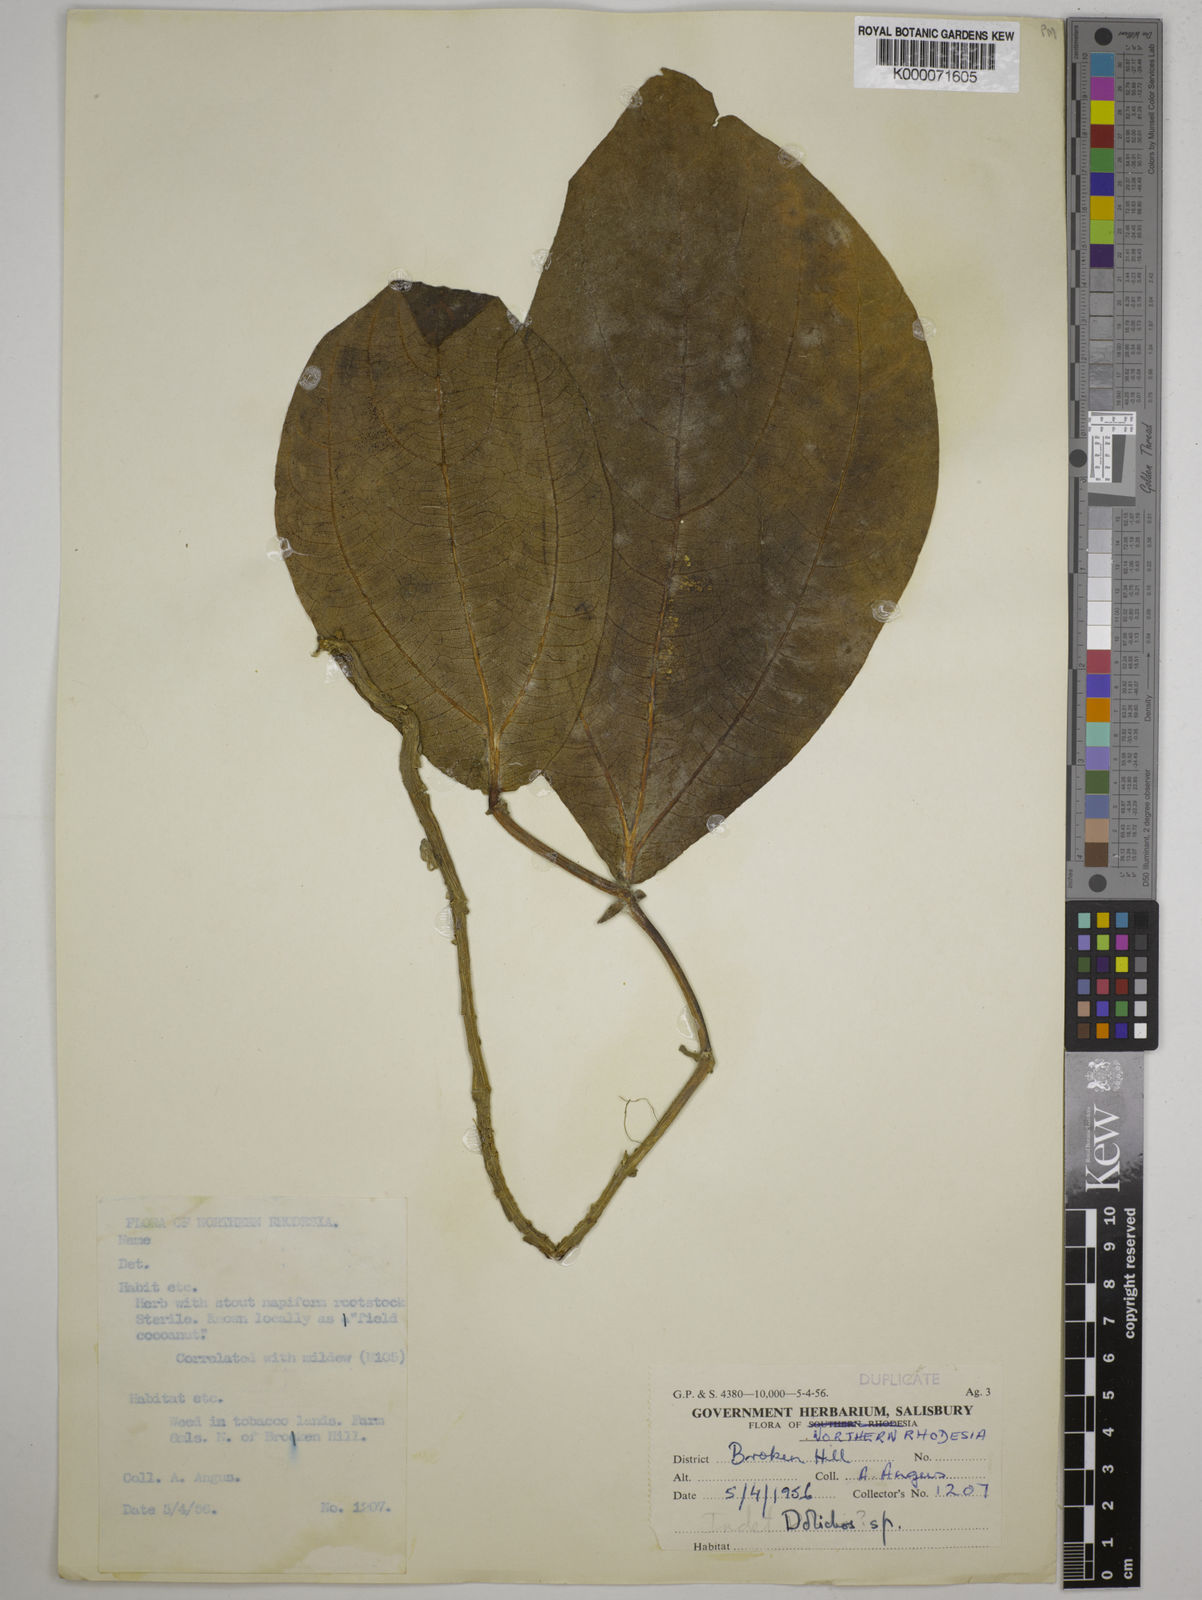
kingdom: Plantae
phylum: Tracheophyta
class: Magnoliopsida
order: Fabales
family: Fabaceae
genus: Dolichos
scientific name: Dolichos gululu
